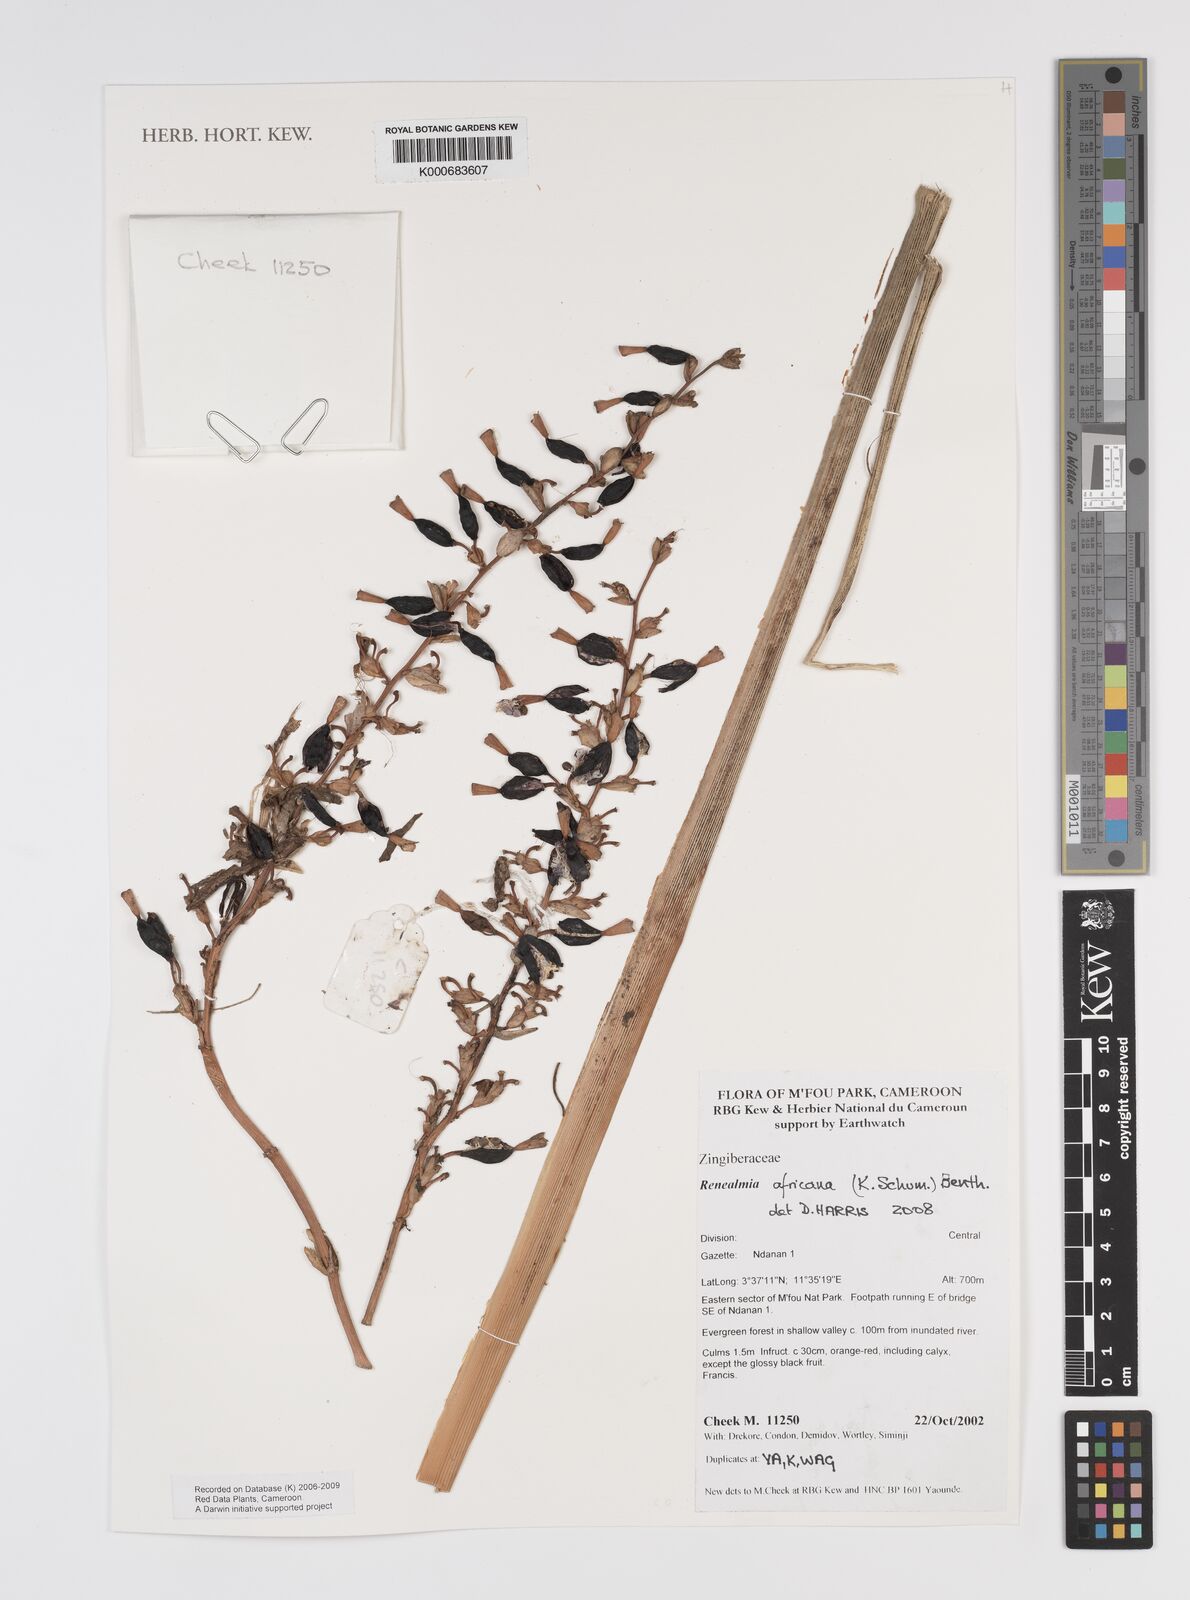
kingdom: Plantae
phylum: Tracheophyta
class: Liliopsida
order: Zingiberales
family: Zingiberaceae
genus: Renealmia
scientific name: Renealmia africana
